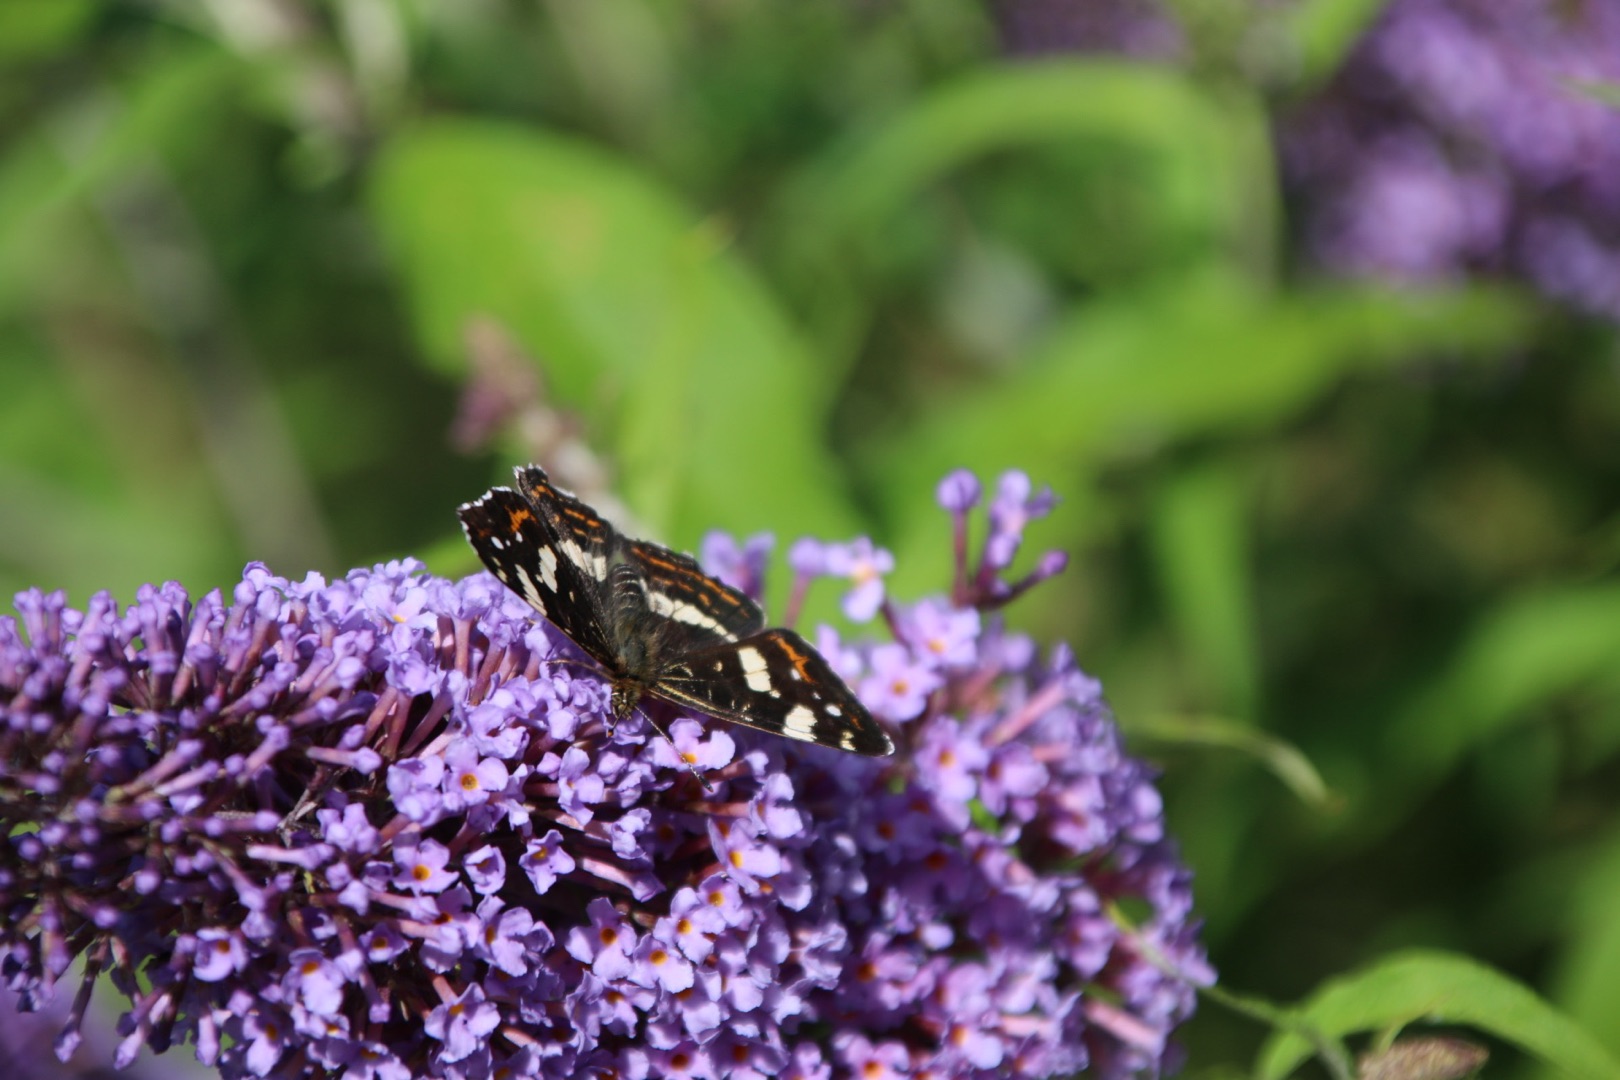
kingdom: Animalia
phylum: Arthropoda
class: Insecta
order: Lepidoptera
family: Nymphalidae
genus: Araschnia
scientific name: Araschnia levana
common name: Nældesommerfugl
